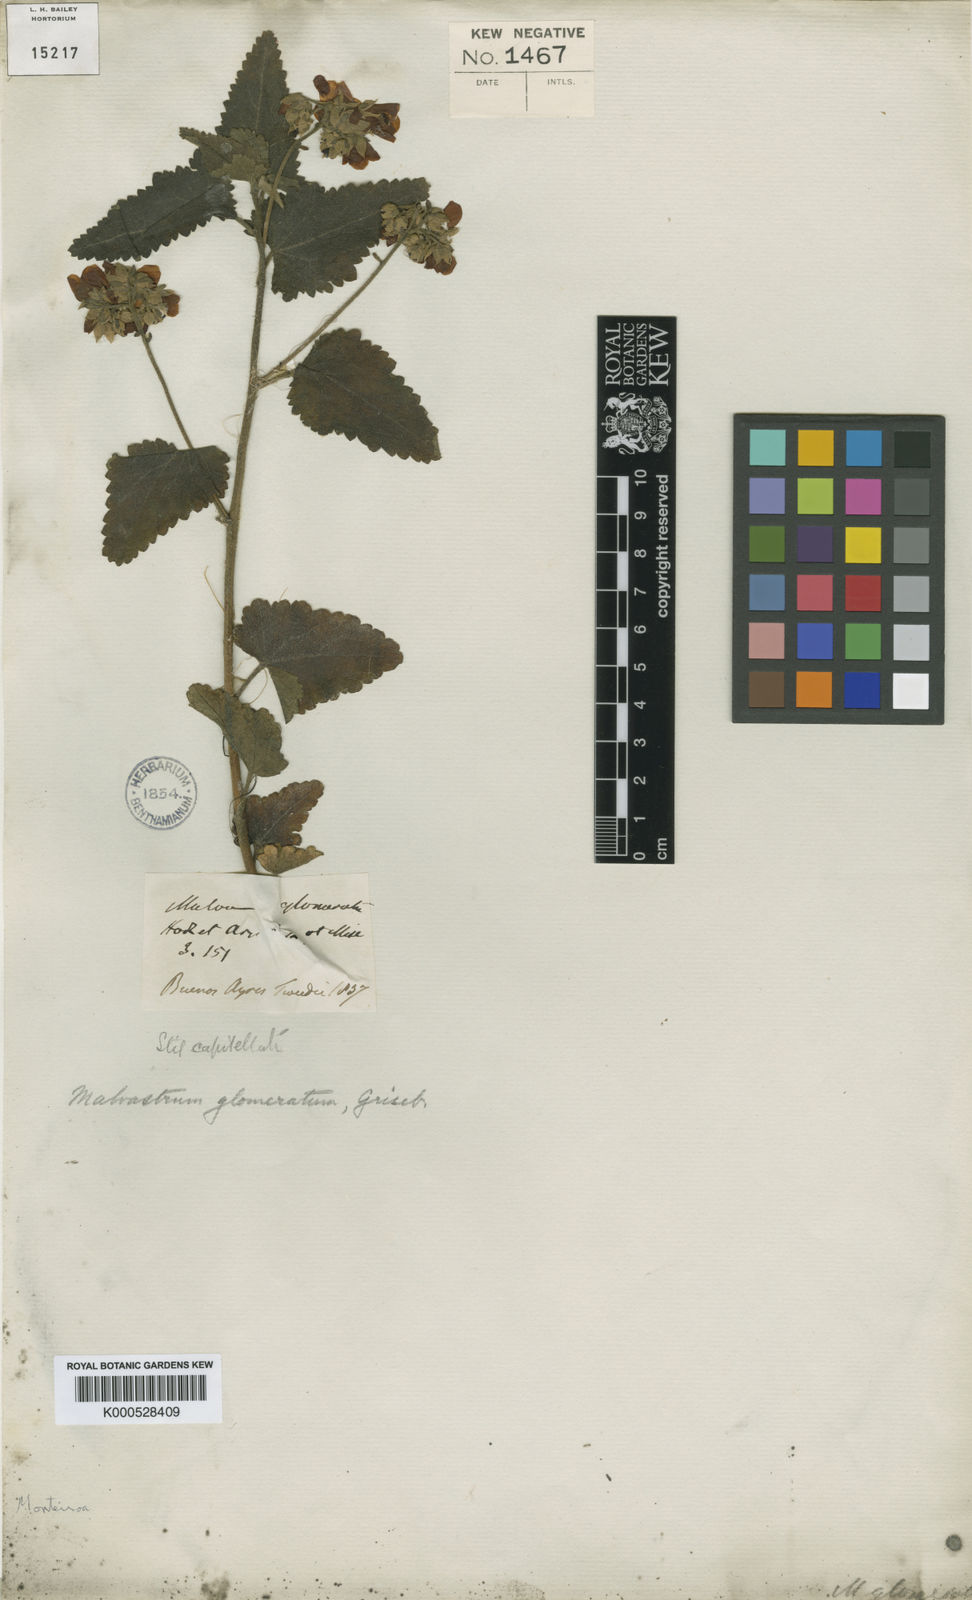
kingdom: Plantae
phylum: Tracheophyta
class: Magnoliopsida
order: Malvales
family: Malvaceae
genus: Monteiroa
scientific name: Monteiroa glomerata
